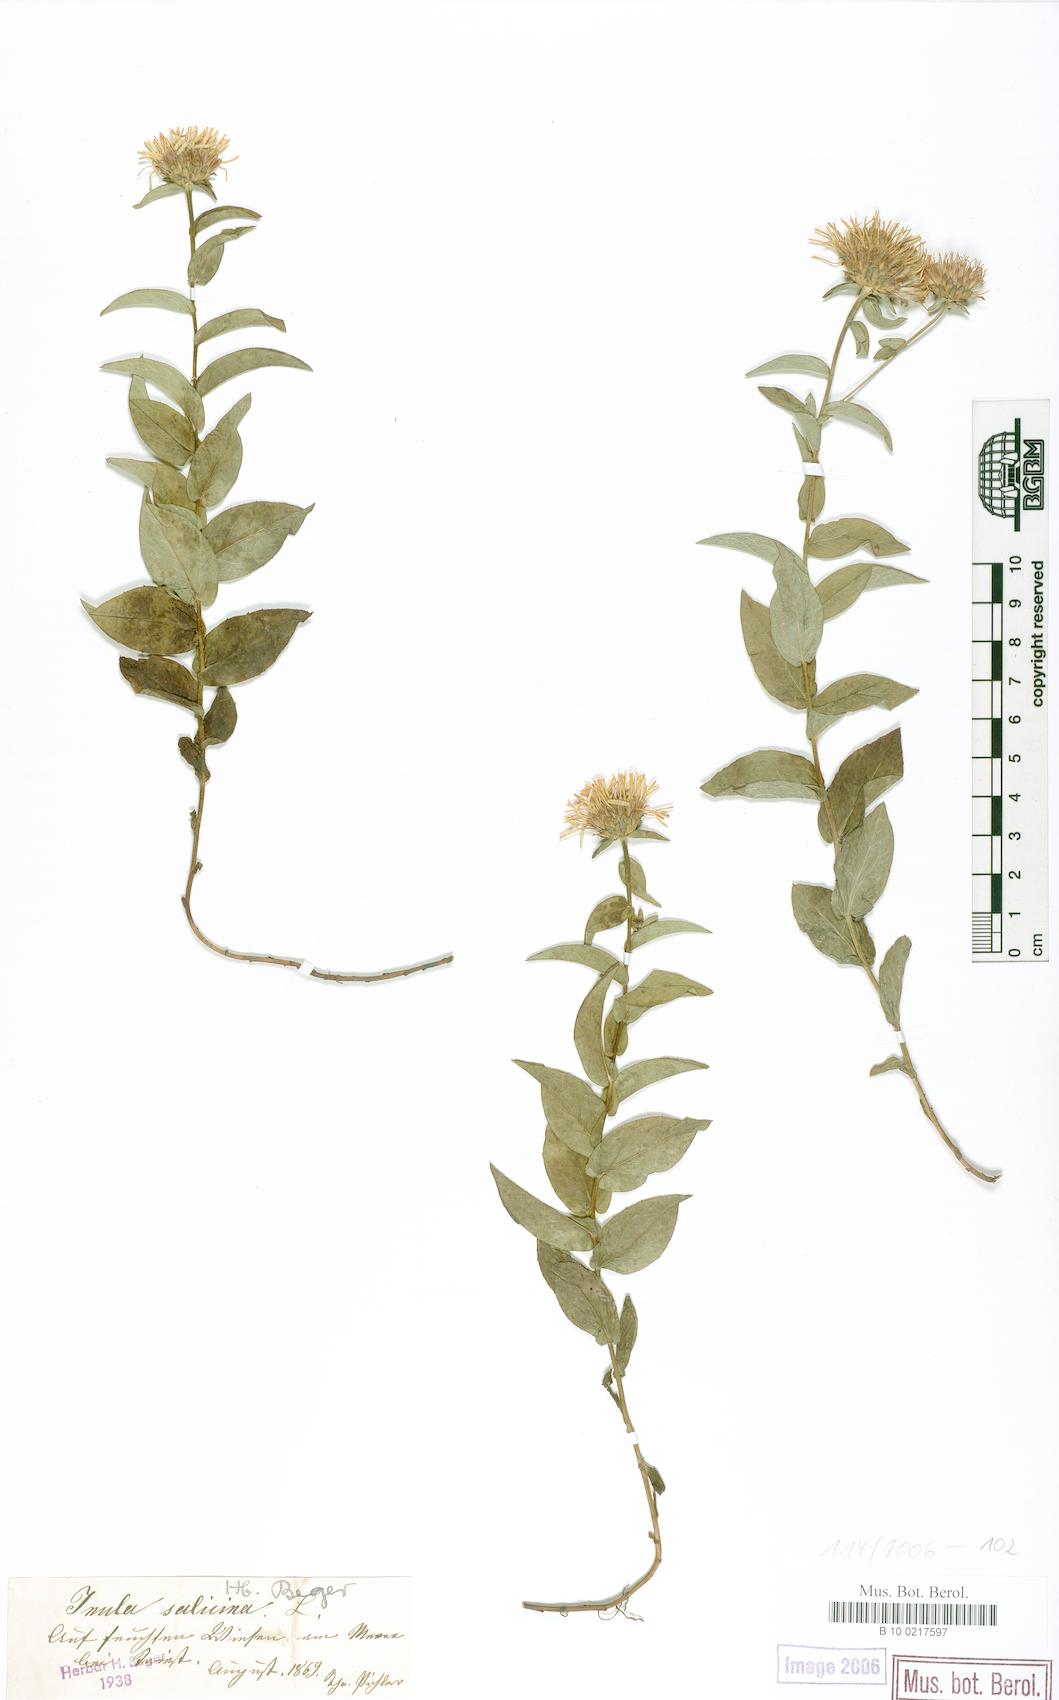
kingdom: Plantae
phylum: Tracheophyta
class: Magnoliopsida
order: Asterales
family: Asteraceae
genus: Pentanema
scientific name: Pentanema salicinum
